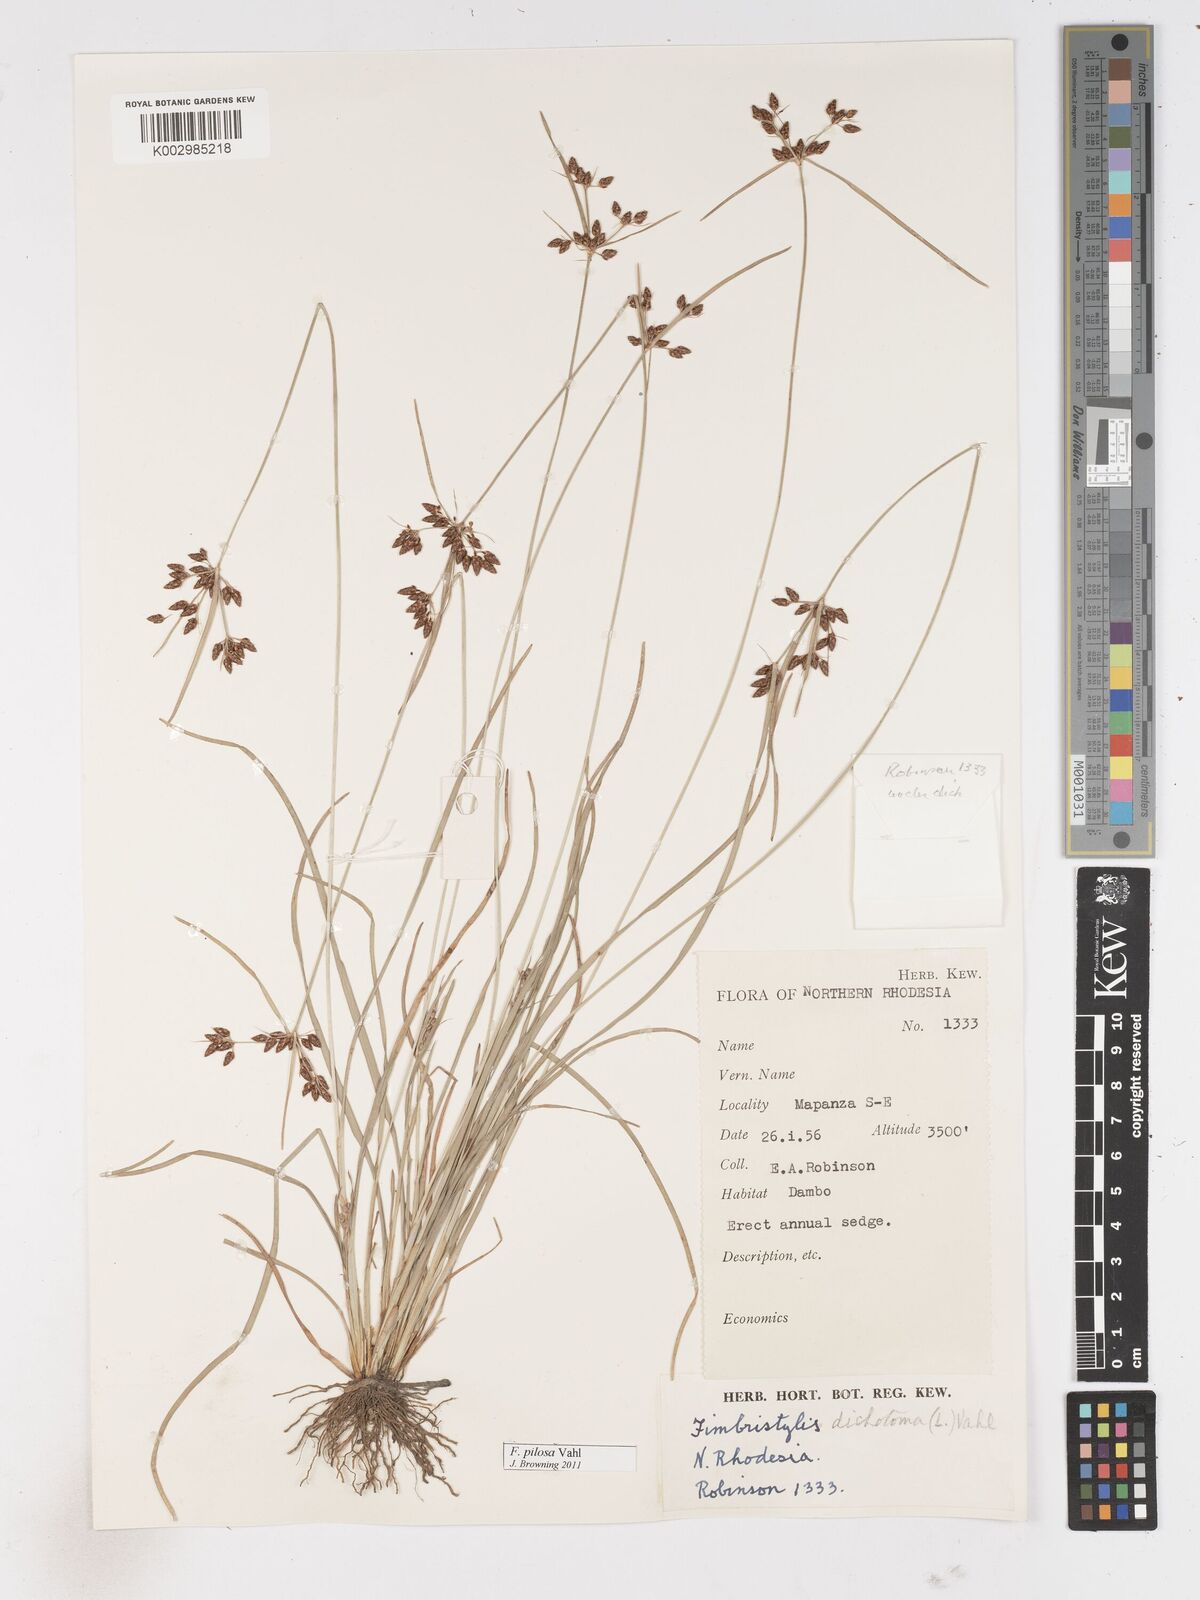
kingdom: Plantae
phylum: Tracheophyta
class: Liliopsida
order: Poales
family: Cyperaceae
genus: Fimbristylis
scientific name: Fimbristylis pilosa
